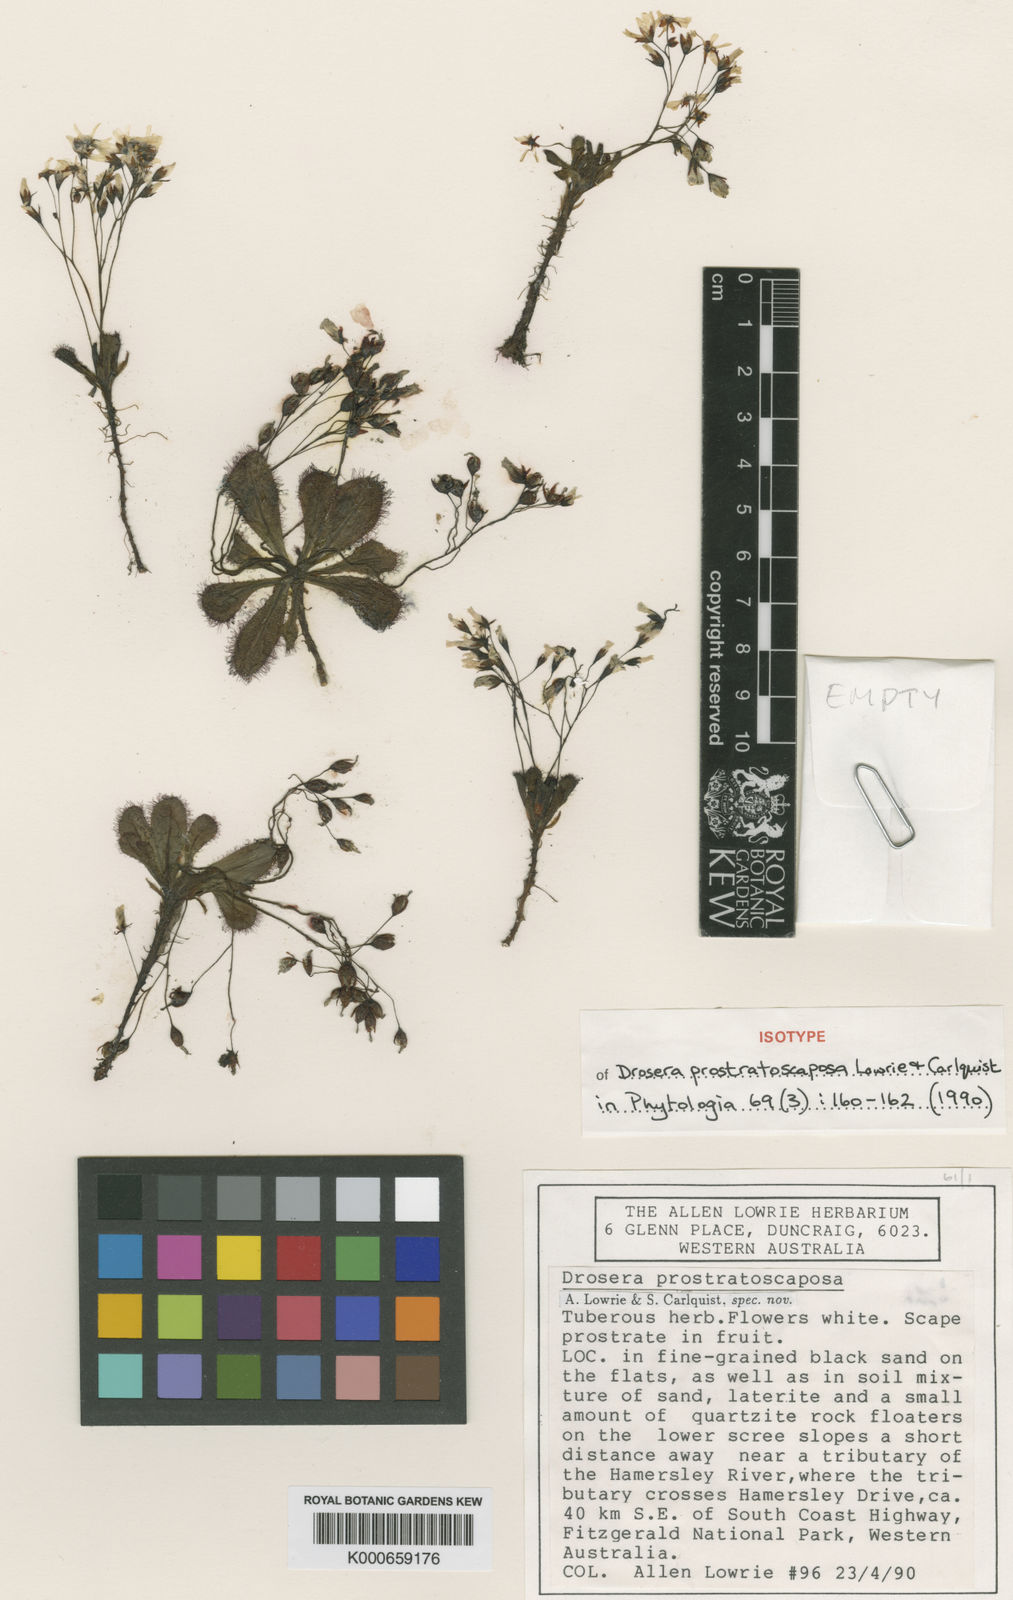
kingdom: Plantae
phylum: Tracheophyta
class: Magnoliopsida
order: Caryophyllales
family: Droseraceae
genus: Drosera
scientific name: Drosera prostratoscaposa
